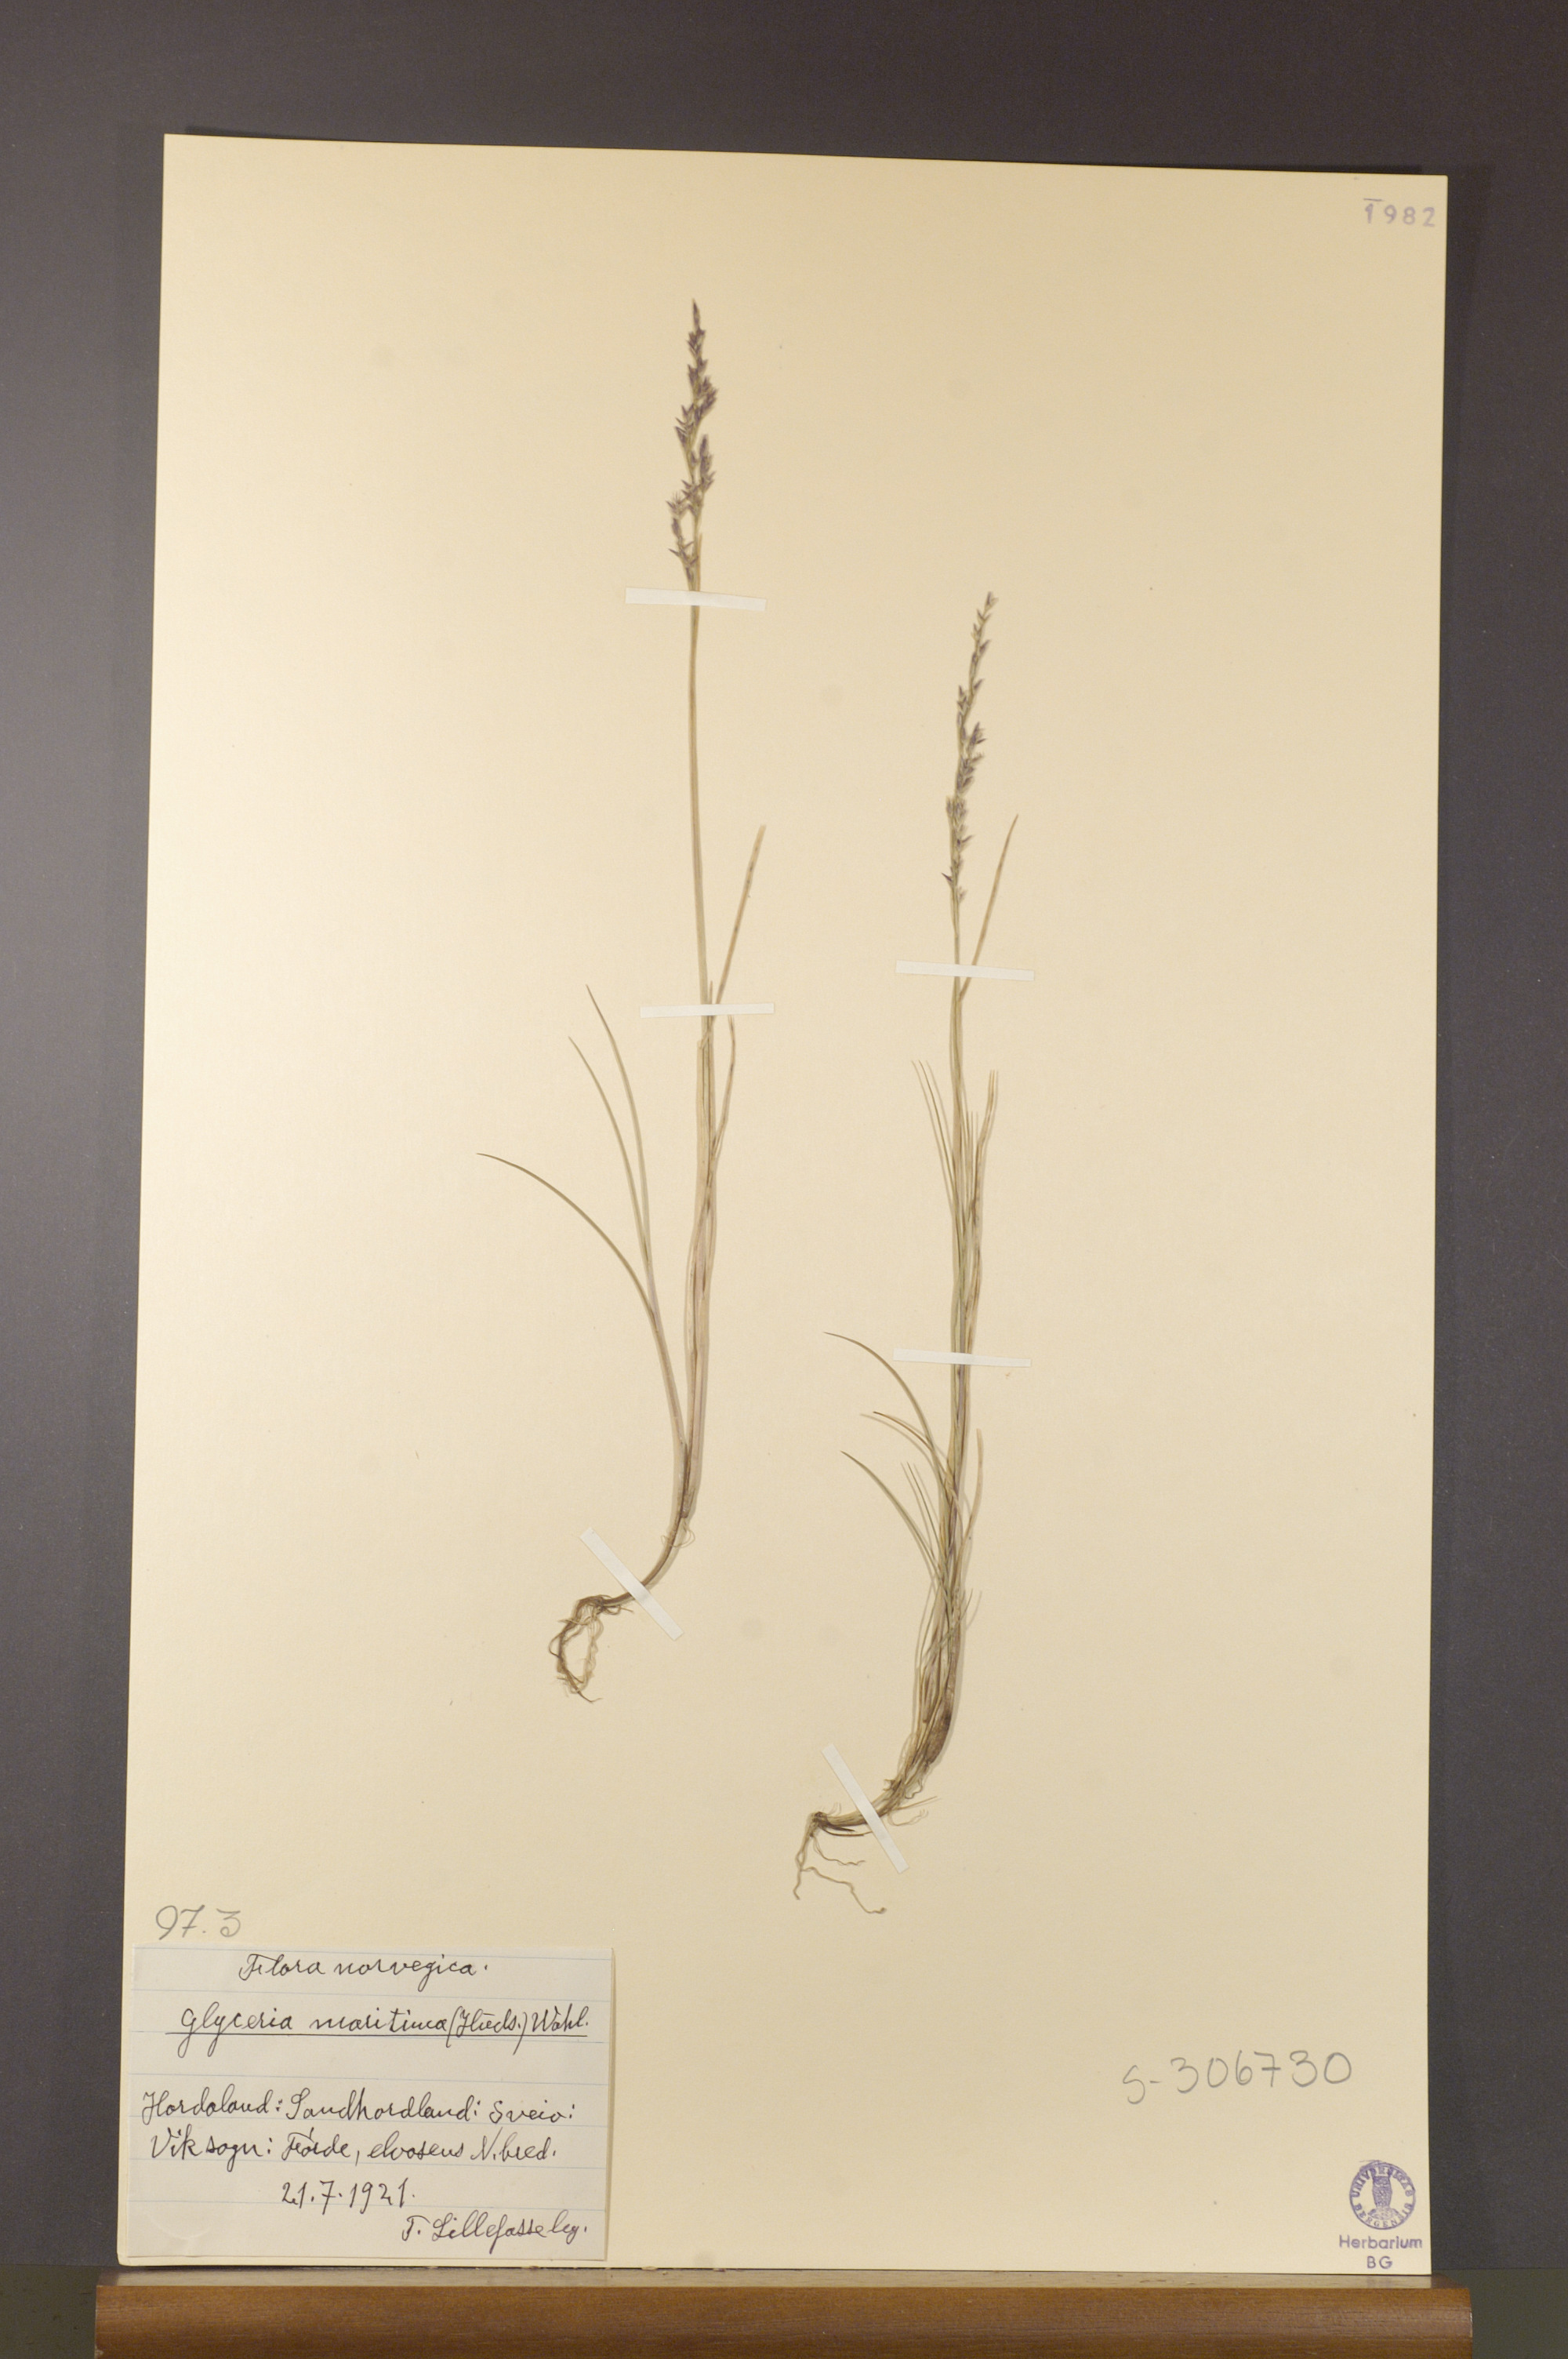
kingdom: Plantae
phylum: Tracheophyta
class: Liliopsida
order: Poales
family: Poaceae
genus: Puccinellia
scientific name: Puccinellia maritima
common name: Common saltmarsh grass
